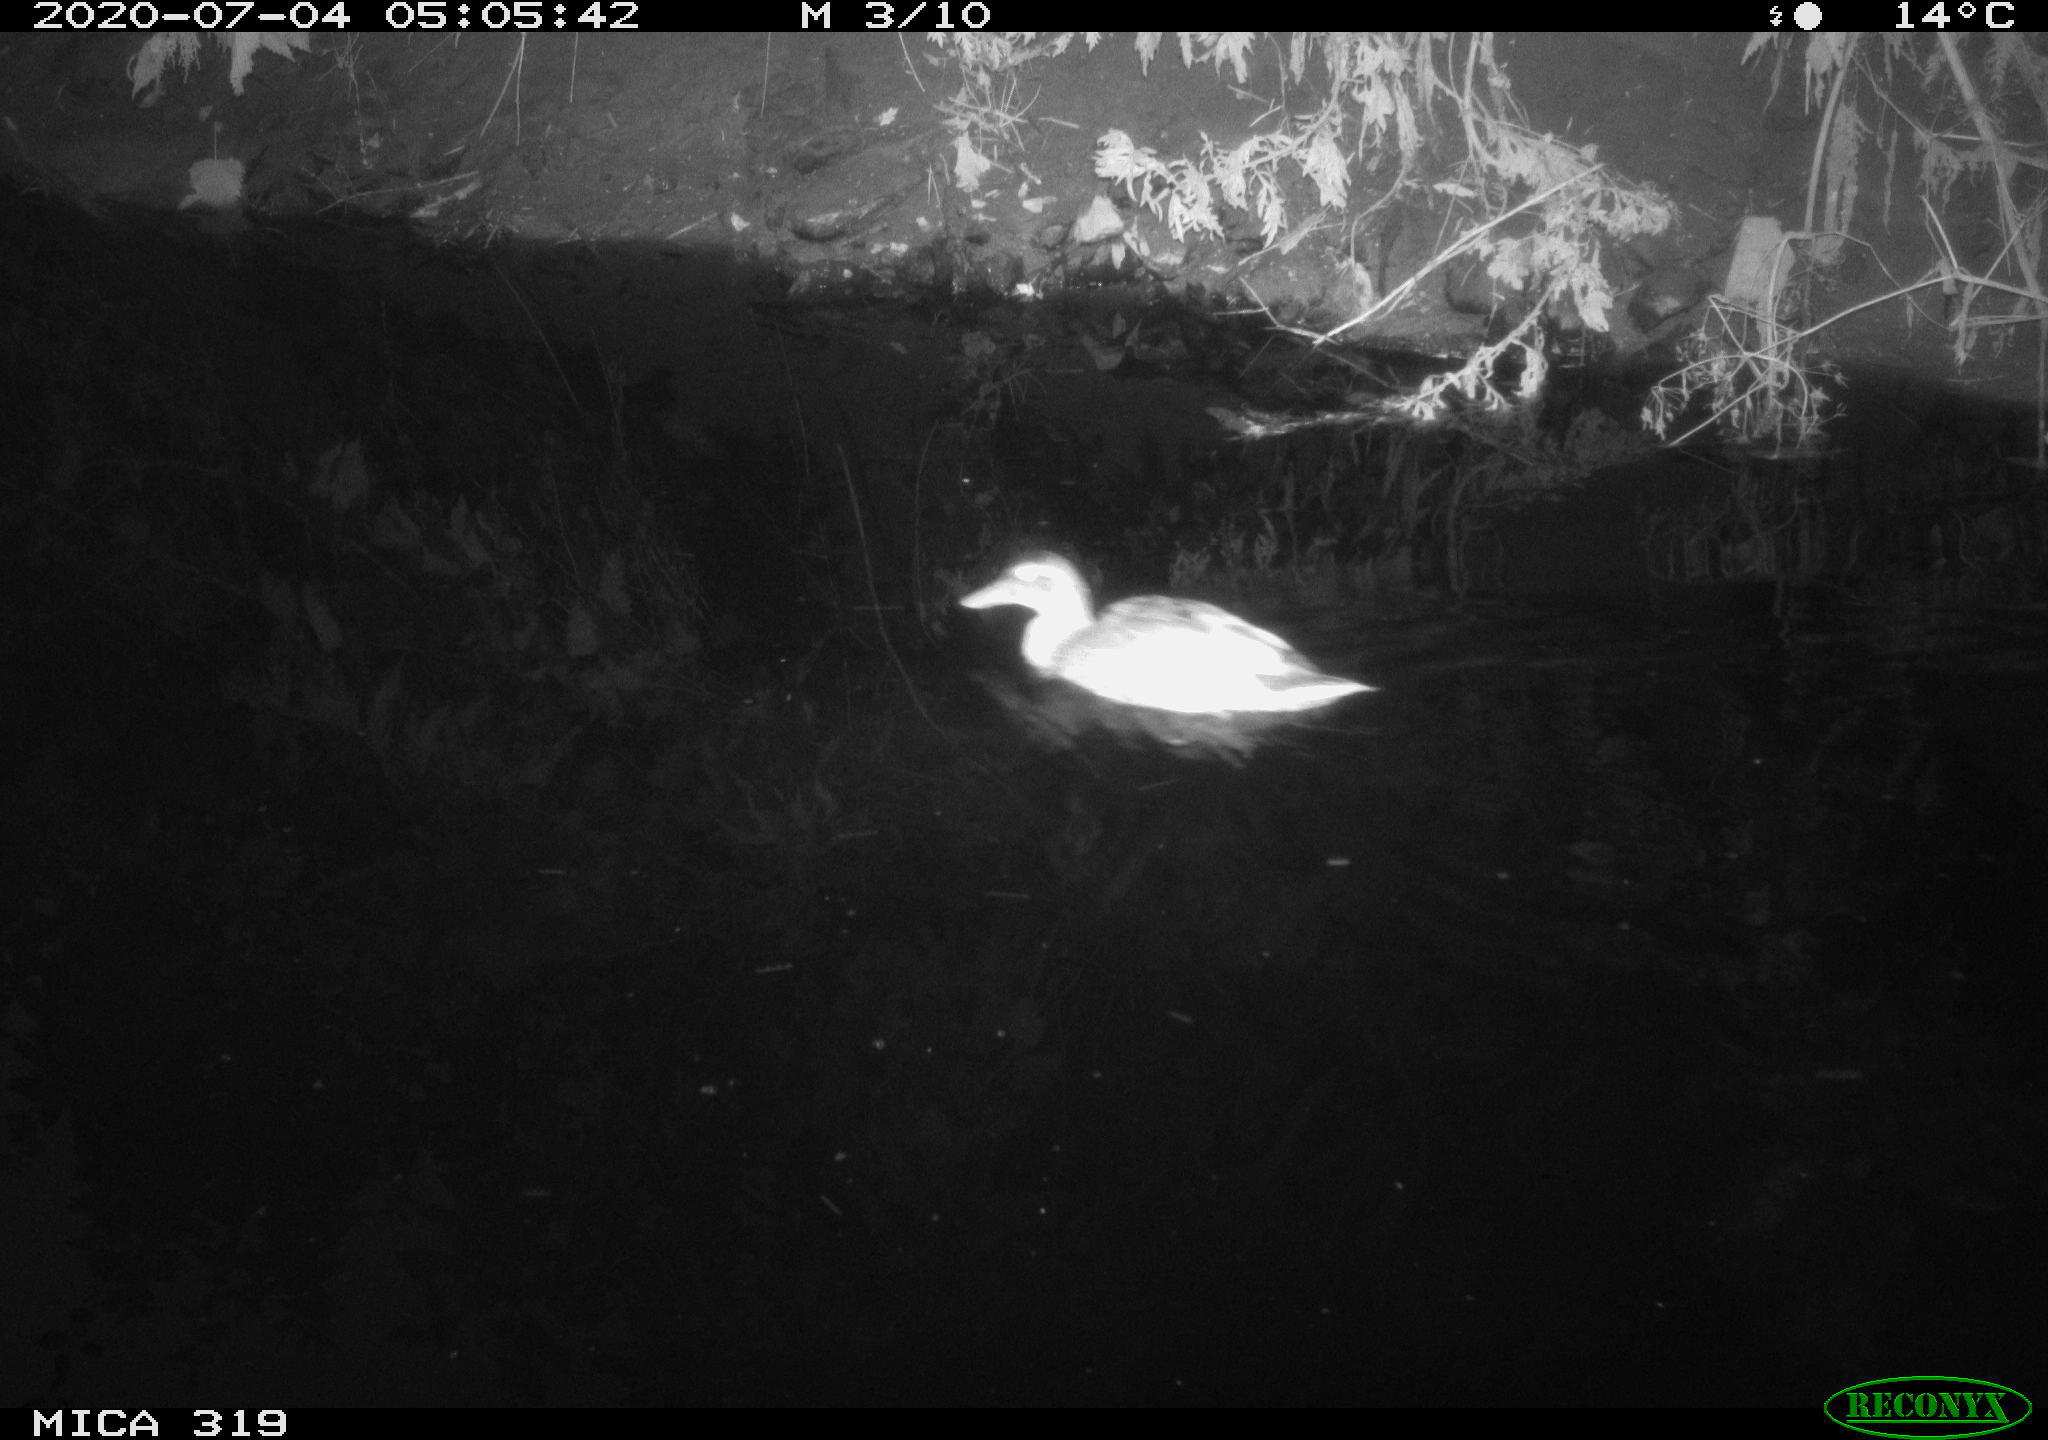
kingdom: Animalia
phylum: Chordata
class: Aves
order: Anseriformes
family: Anatidae
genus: Anas
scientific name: Anas platyrhynchos
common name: Mallard
